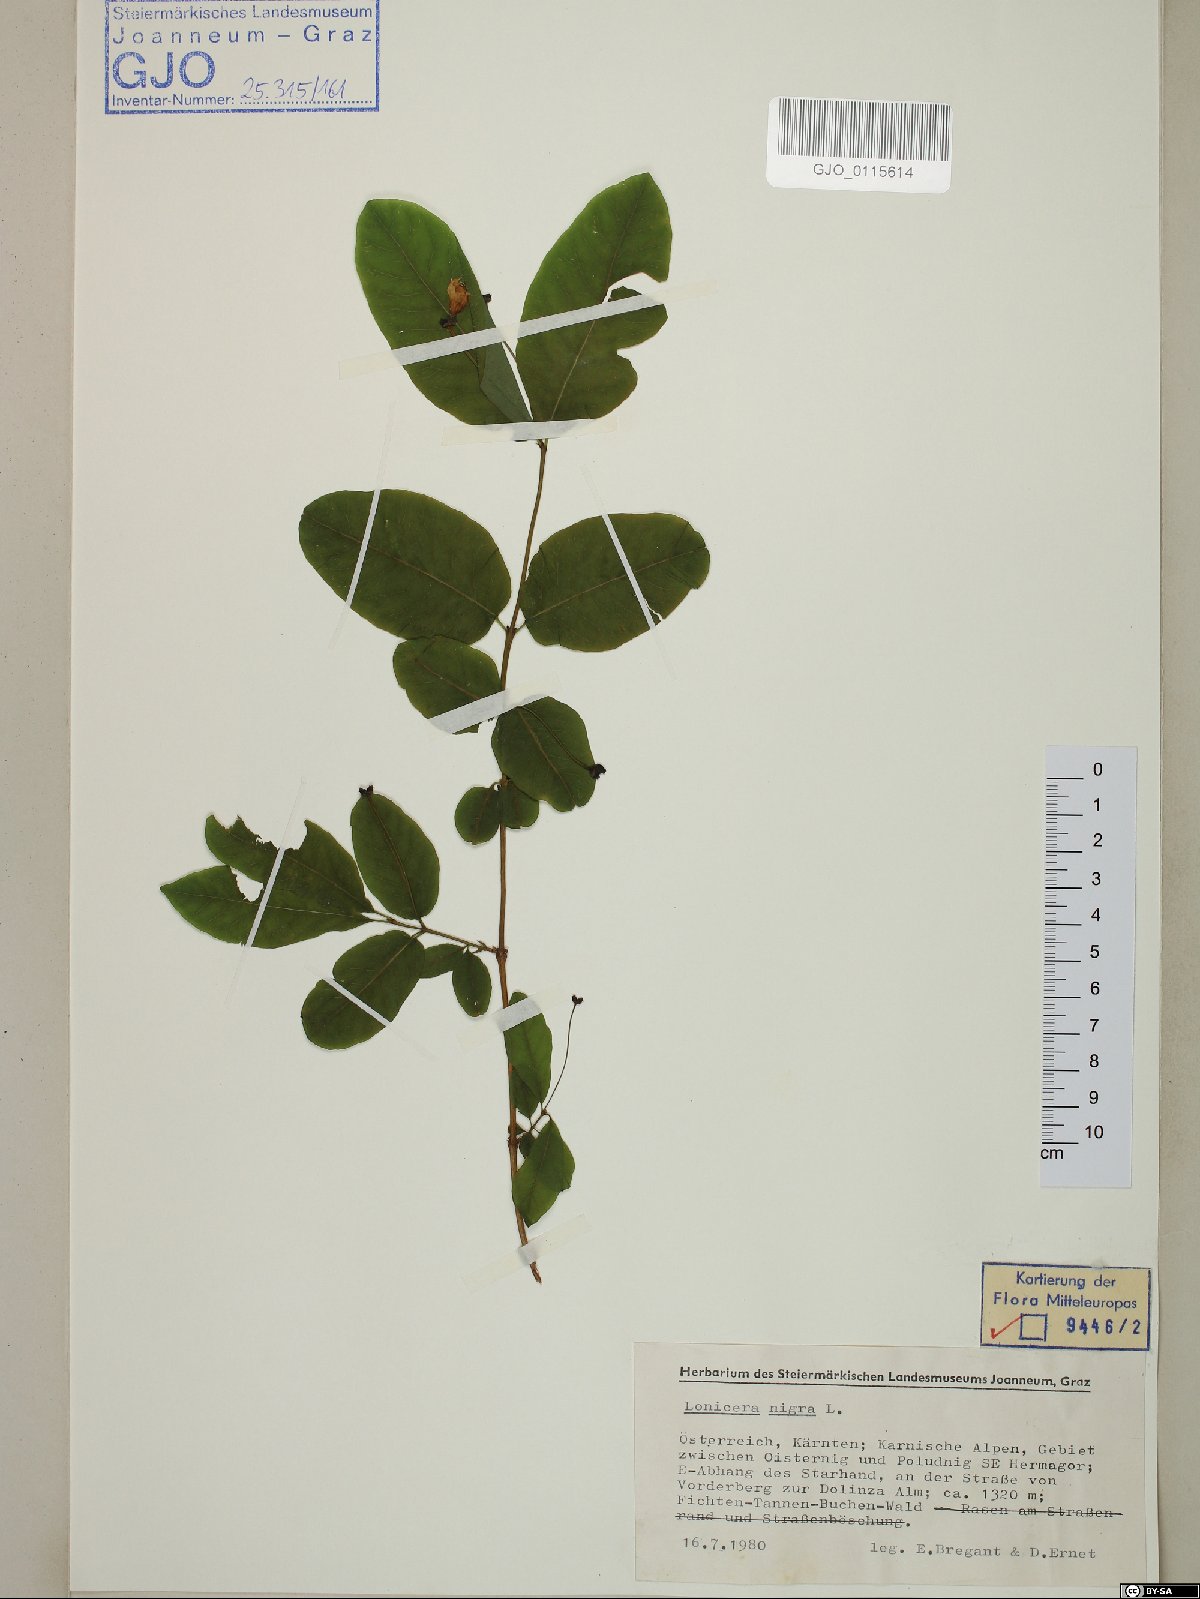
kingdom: Plantae
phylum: Tracheophyta
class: Magnoliopsida
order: Dipsacales
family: Caprifoliaceae
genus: Lonicera
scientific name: Lonicera nigra
